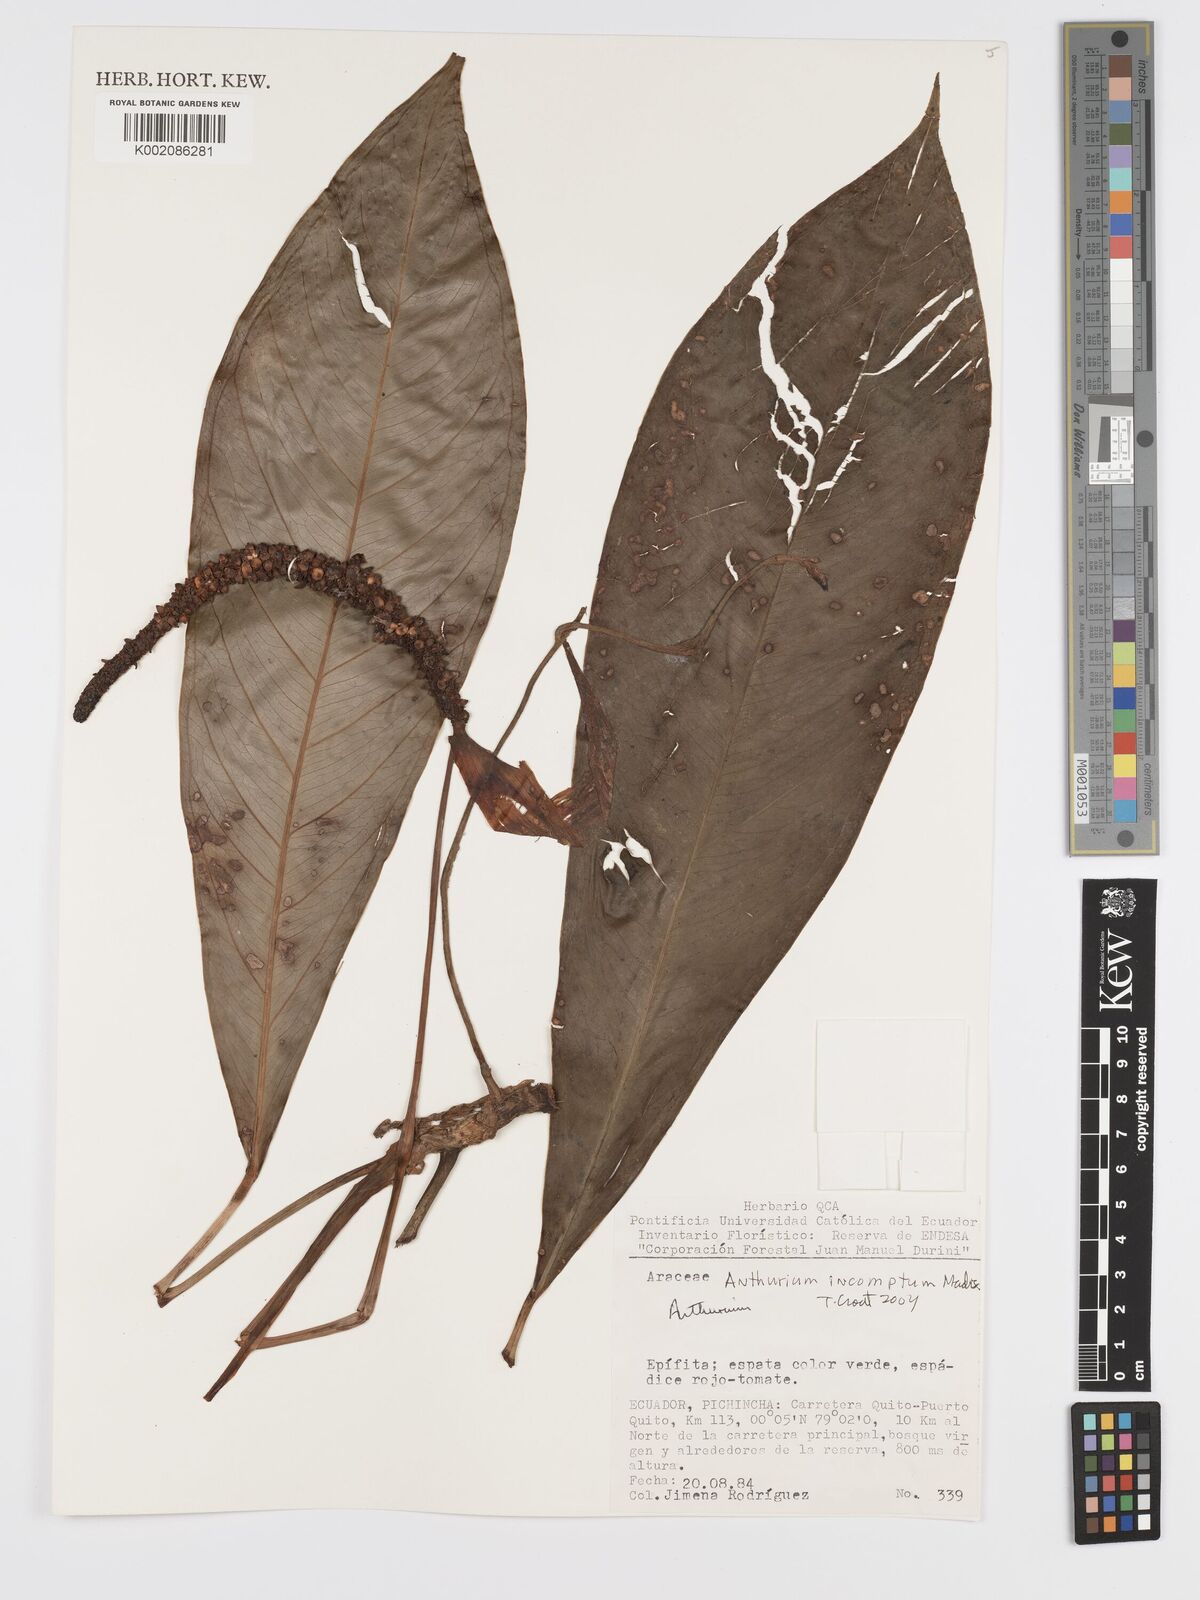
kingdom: Plantae
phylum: Tracheophyta
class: Liliopsida
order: Alismatales
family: Araceae
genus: Anthurium
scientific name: Anthurium incomptum
